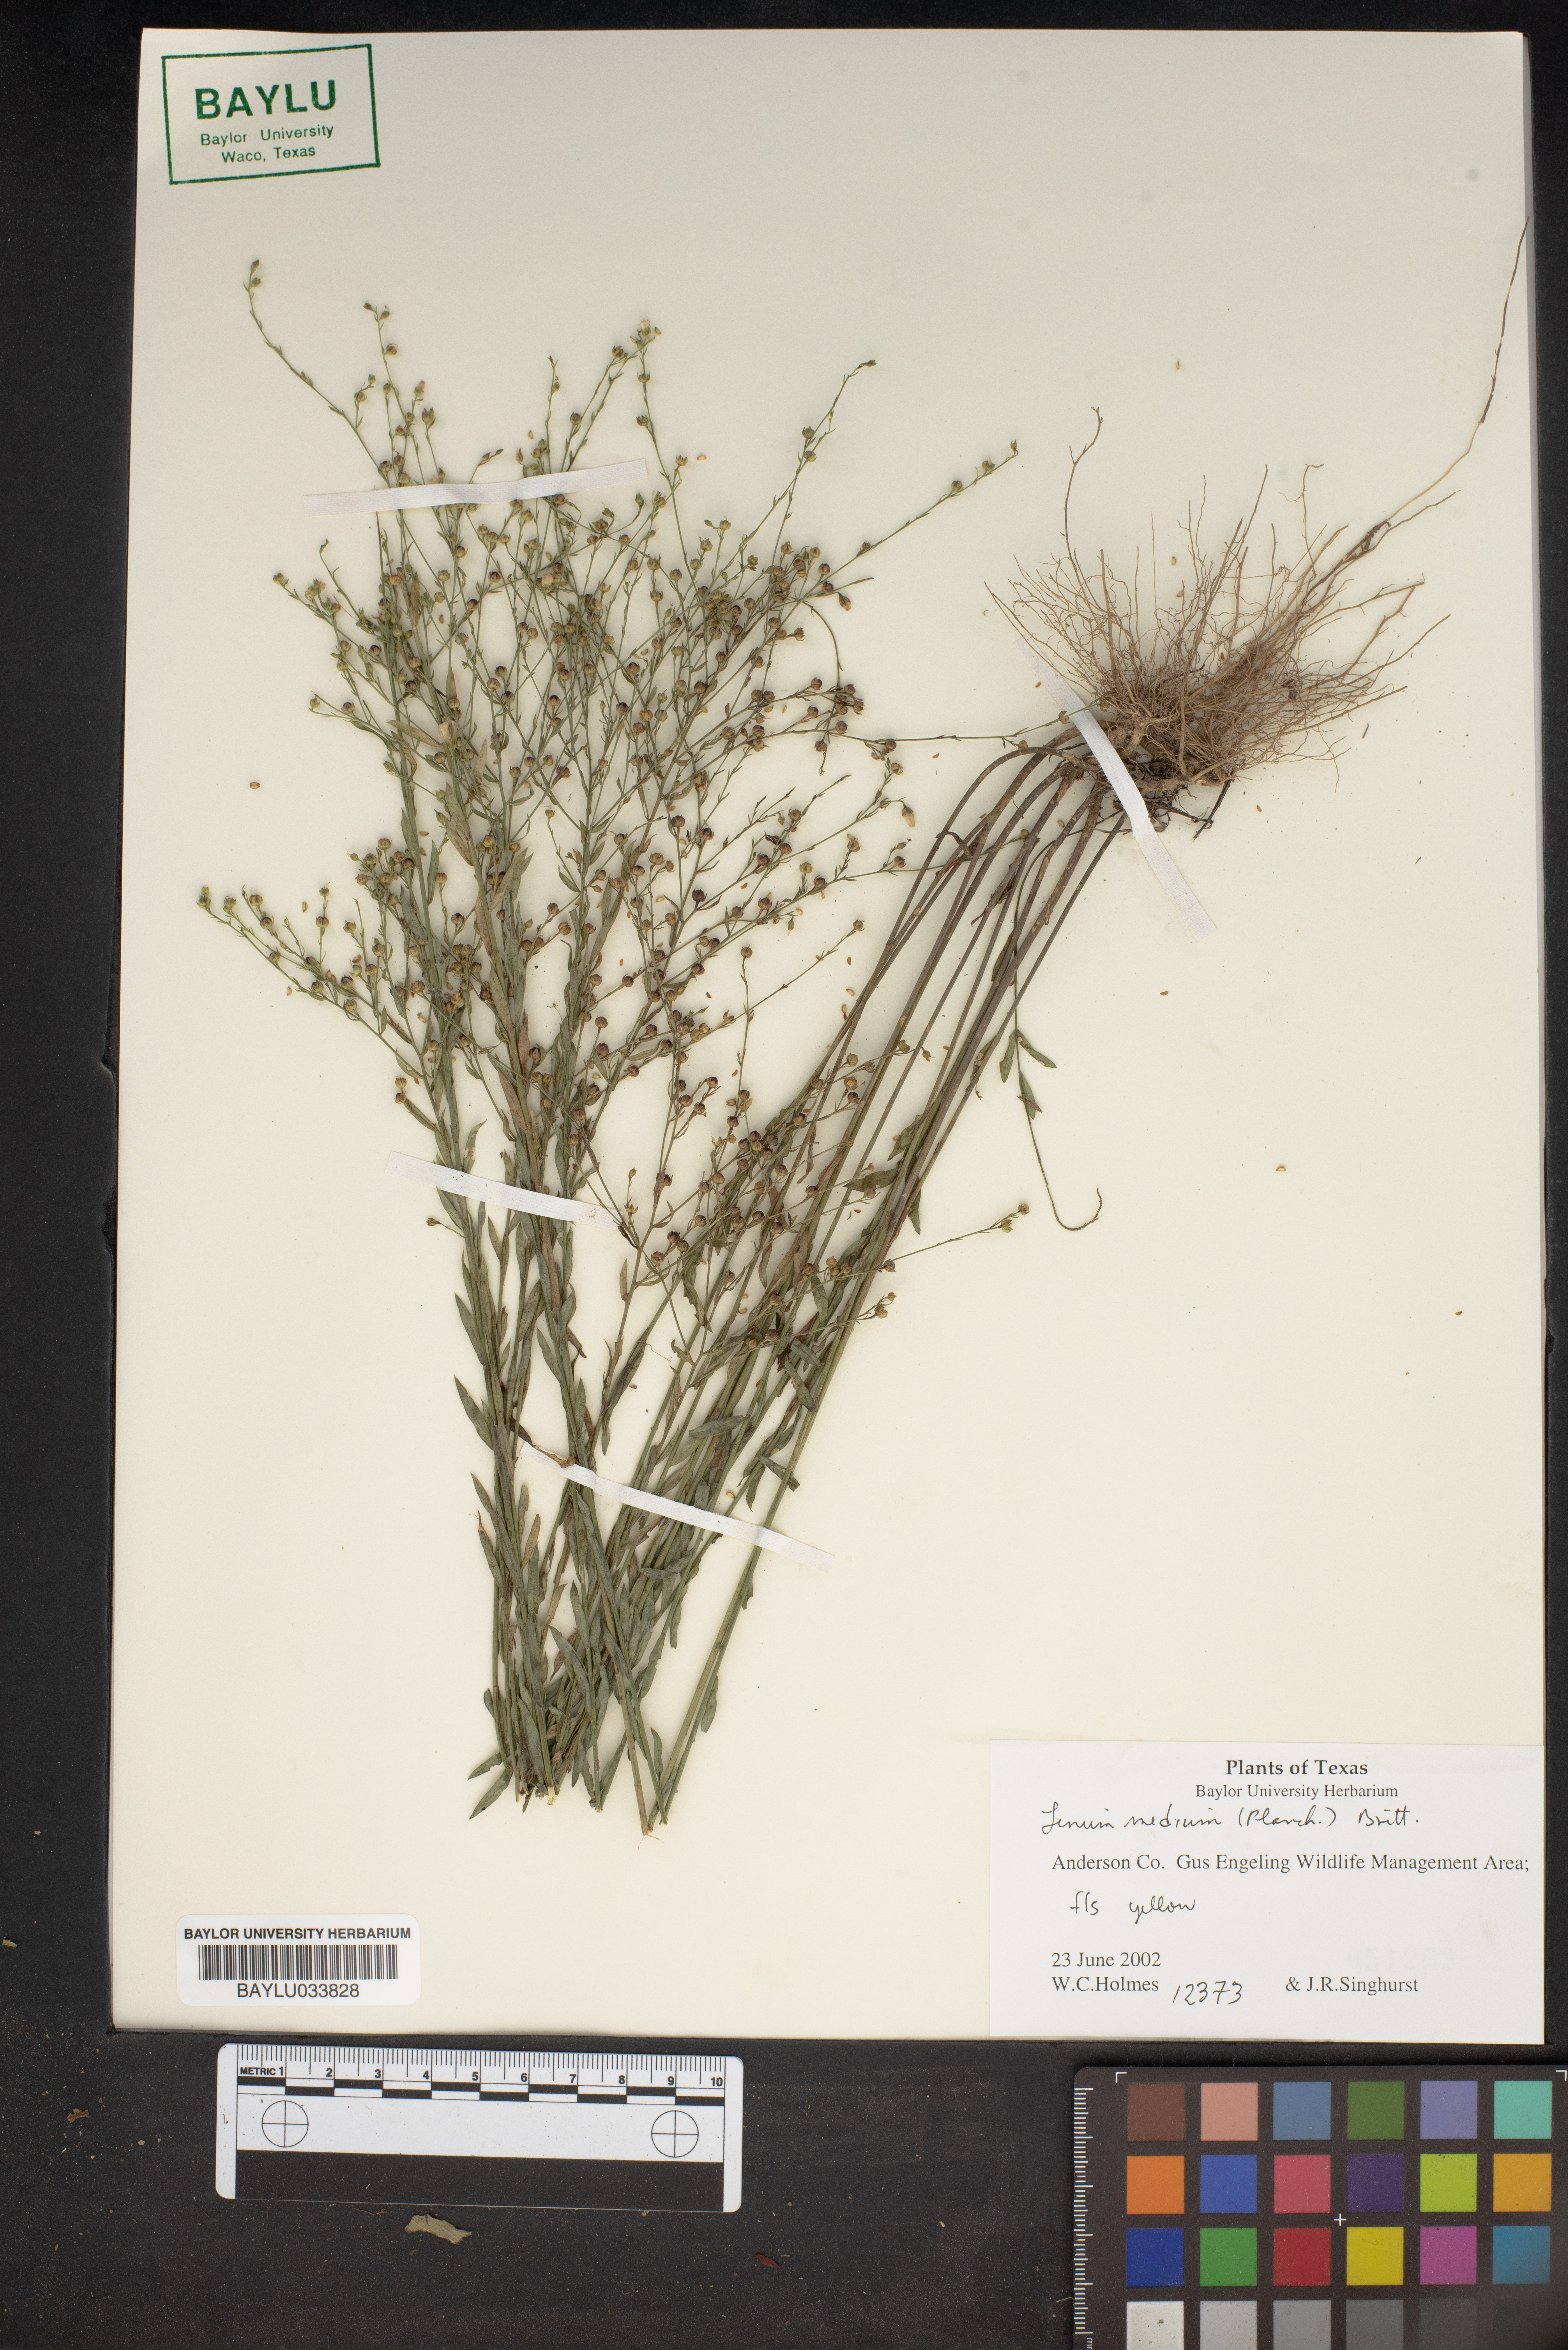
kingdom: Plantae
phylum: Tracheophyta
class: Magnoliopsida
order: Malpighiales
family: Linaceae
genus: Linum
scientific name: Linum medium
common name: Stiff yellow flax
